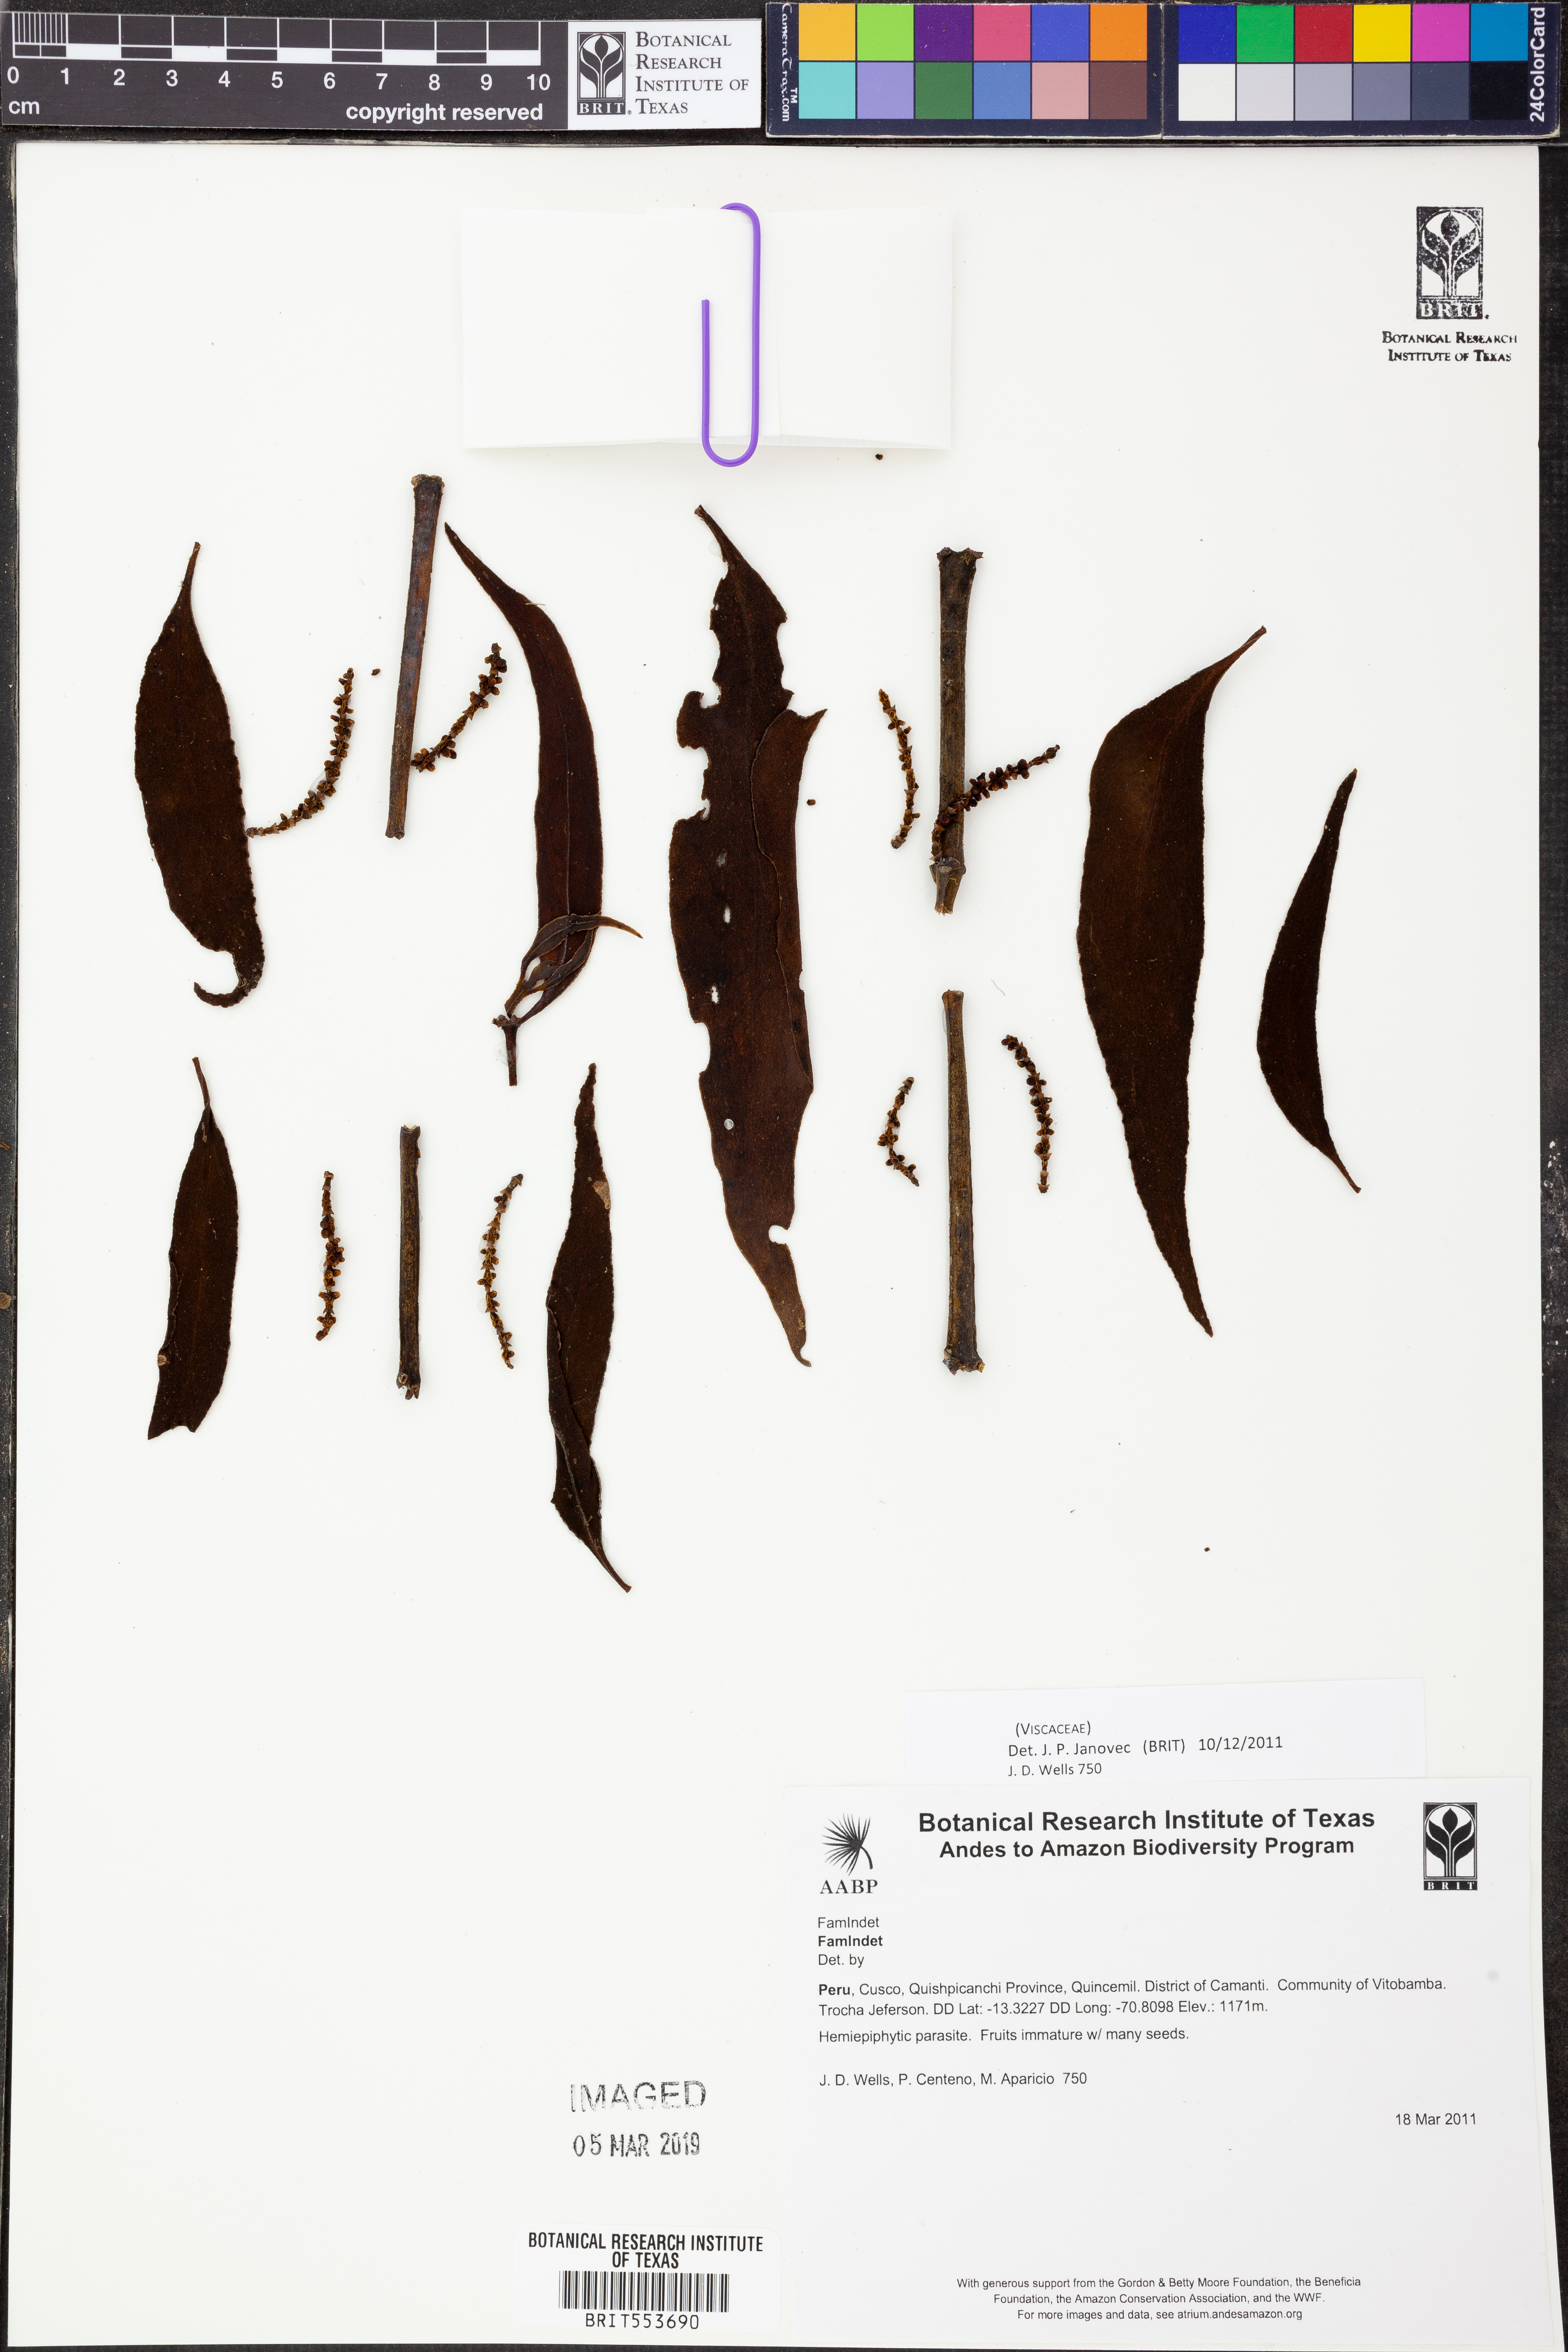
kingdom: Plantae
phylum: Tracheophyta
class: Magnoliopsida
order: Santalales
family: Viscaceae
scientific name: Viscaceae
